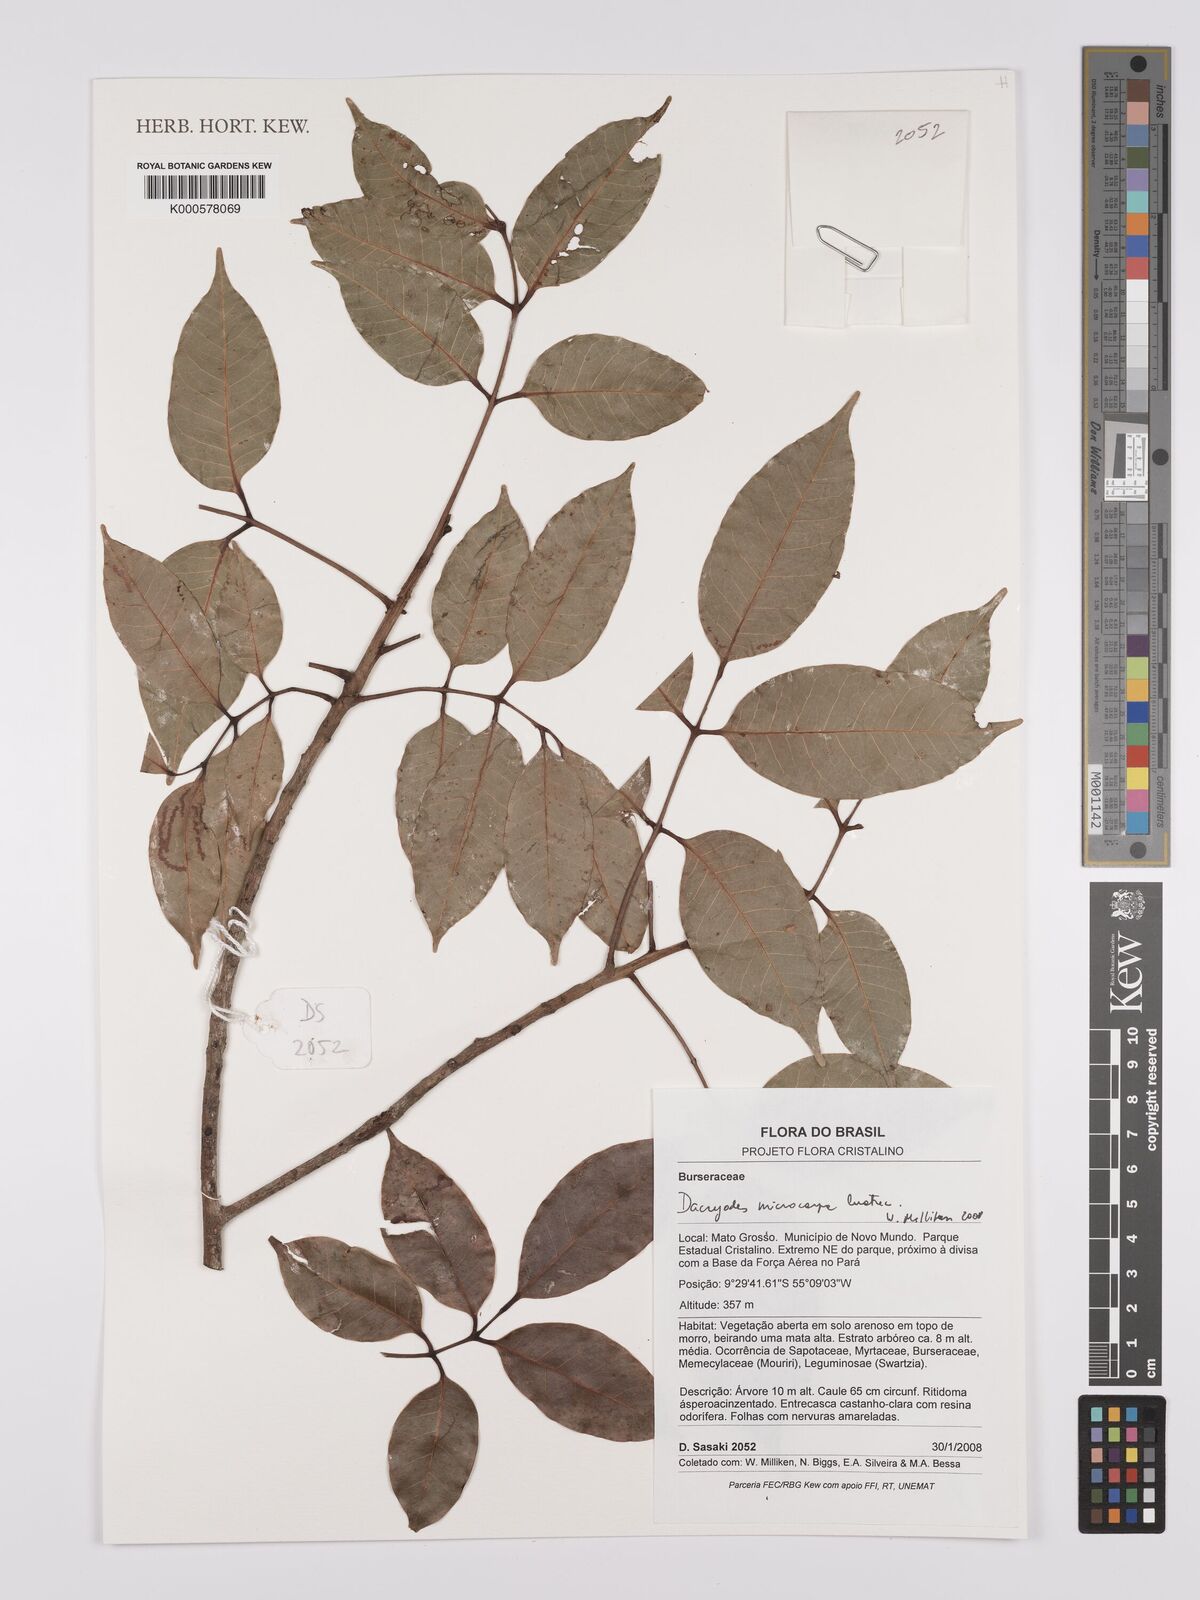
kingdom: Plantae
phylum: Tracheophyta
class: Magnoliopsida
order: Sapindales
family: Burseraceae
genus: Dacryodes
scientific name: Dacryodes microcarpa
